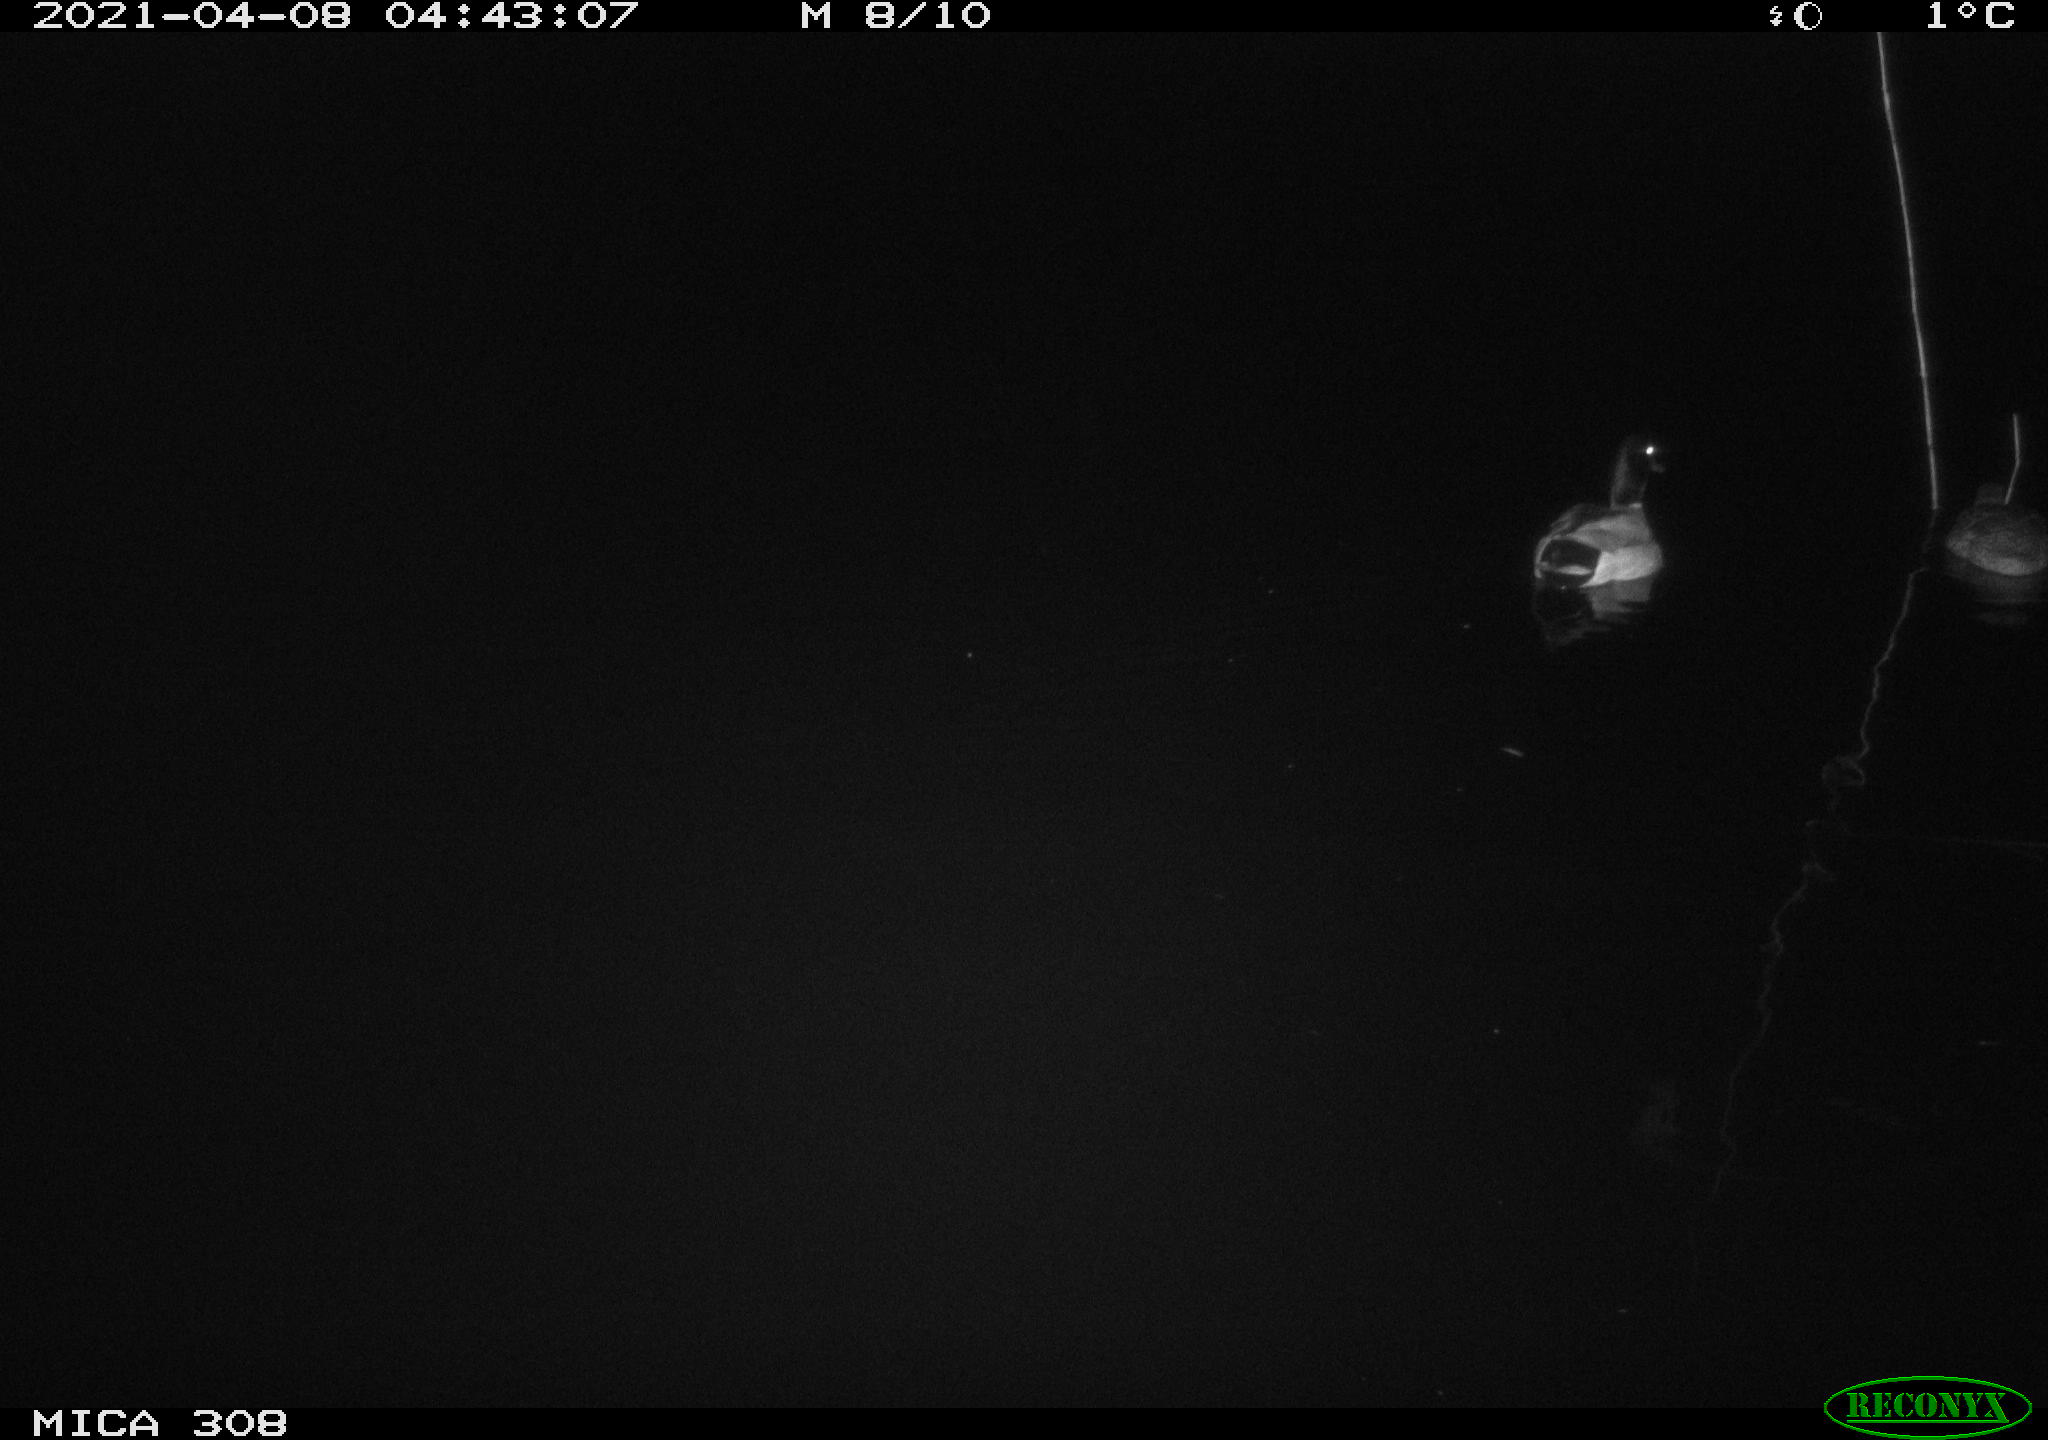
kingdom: Animalia
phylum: Chordata
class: Aves
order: Anseriformes
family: Anatidae
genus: Anas
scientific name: Anas platyrhynchos
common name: Mallard
